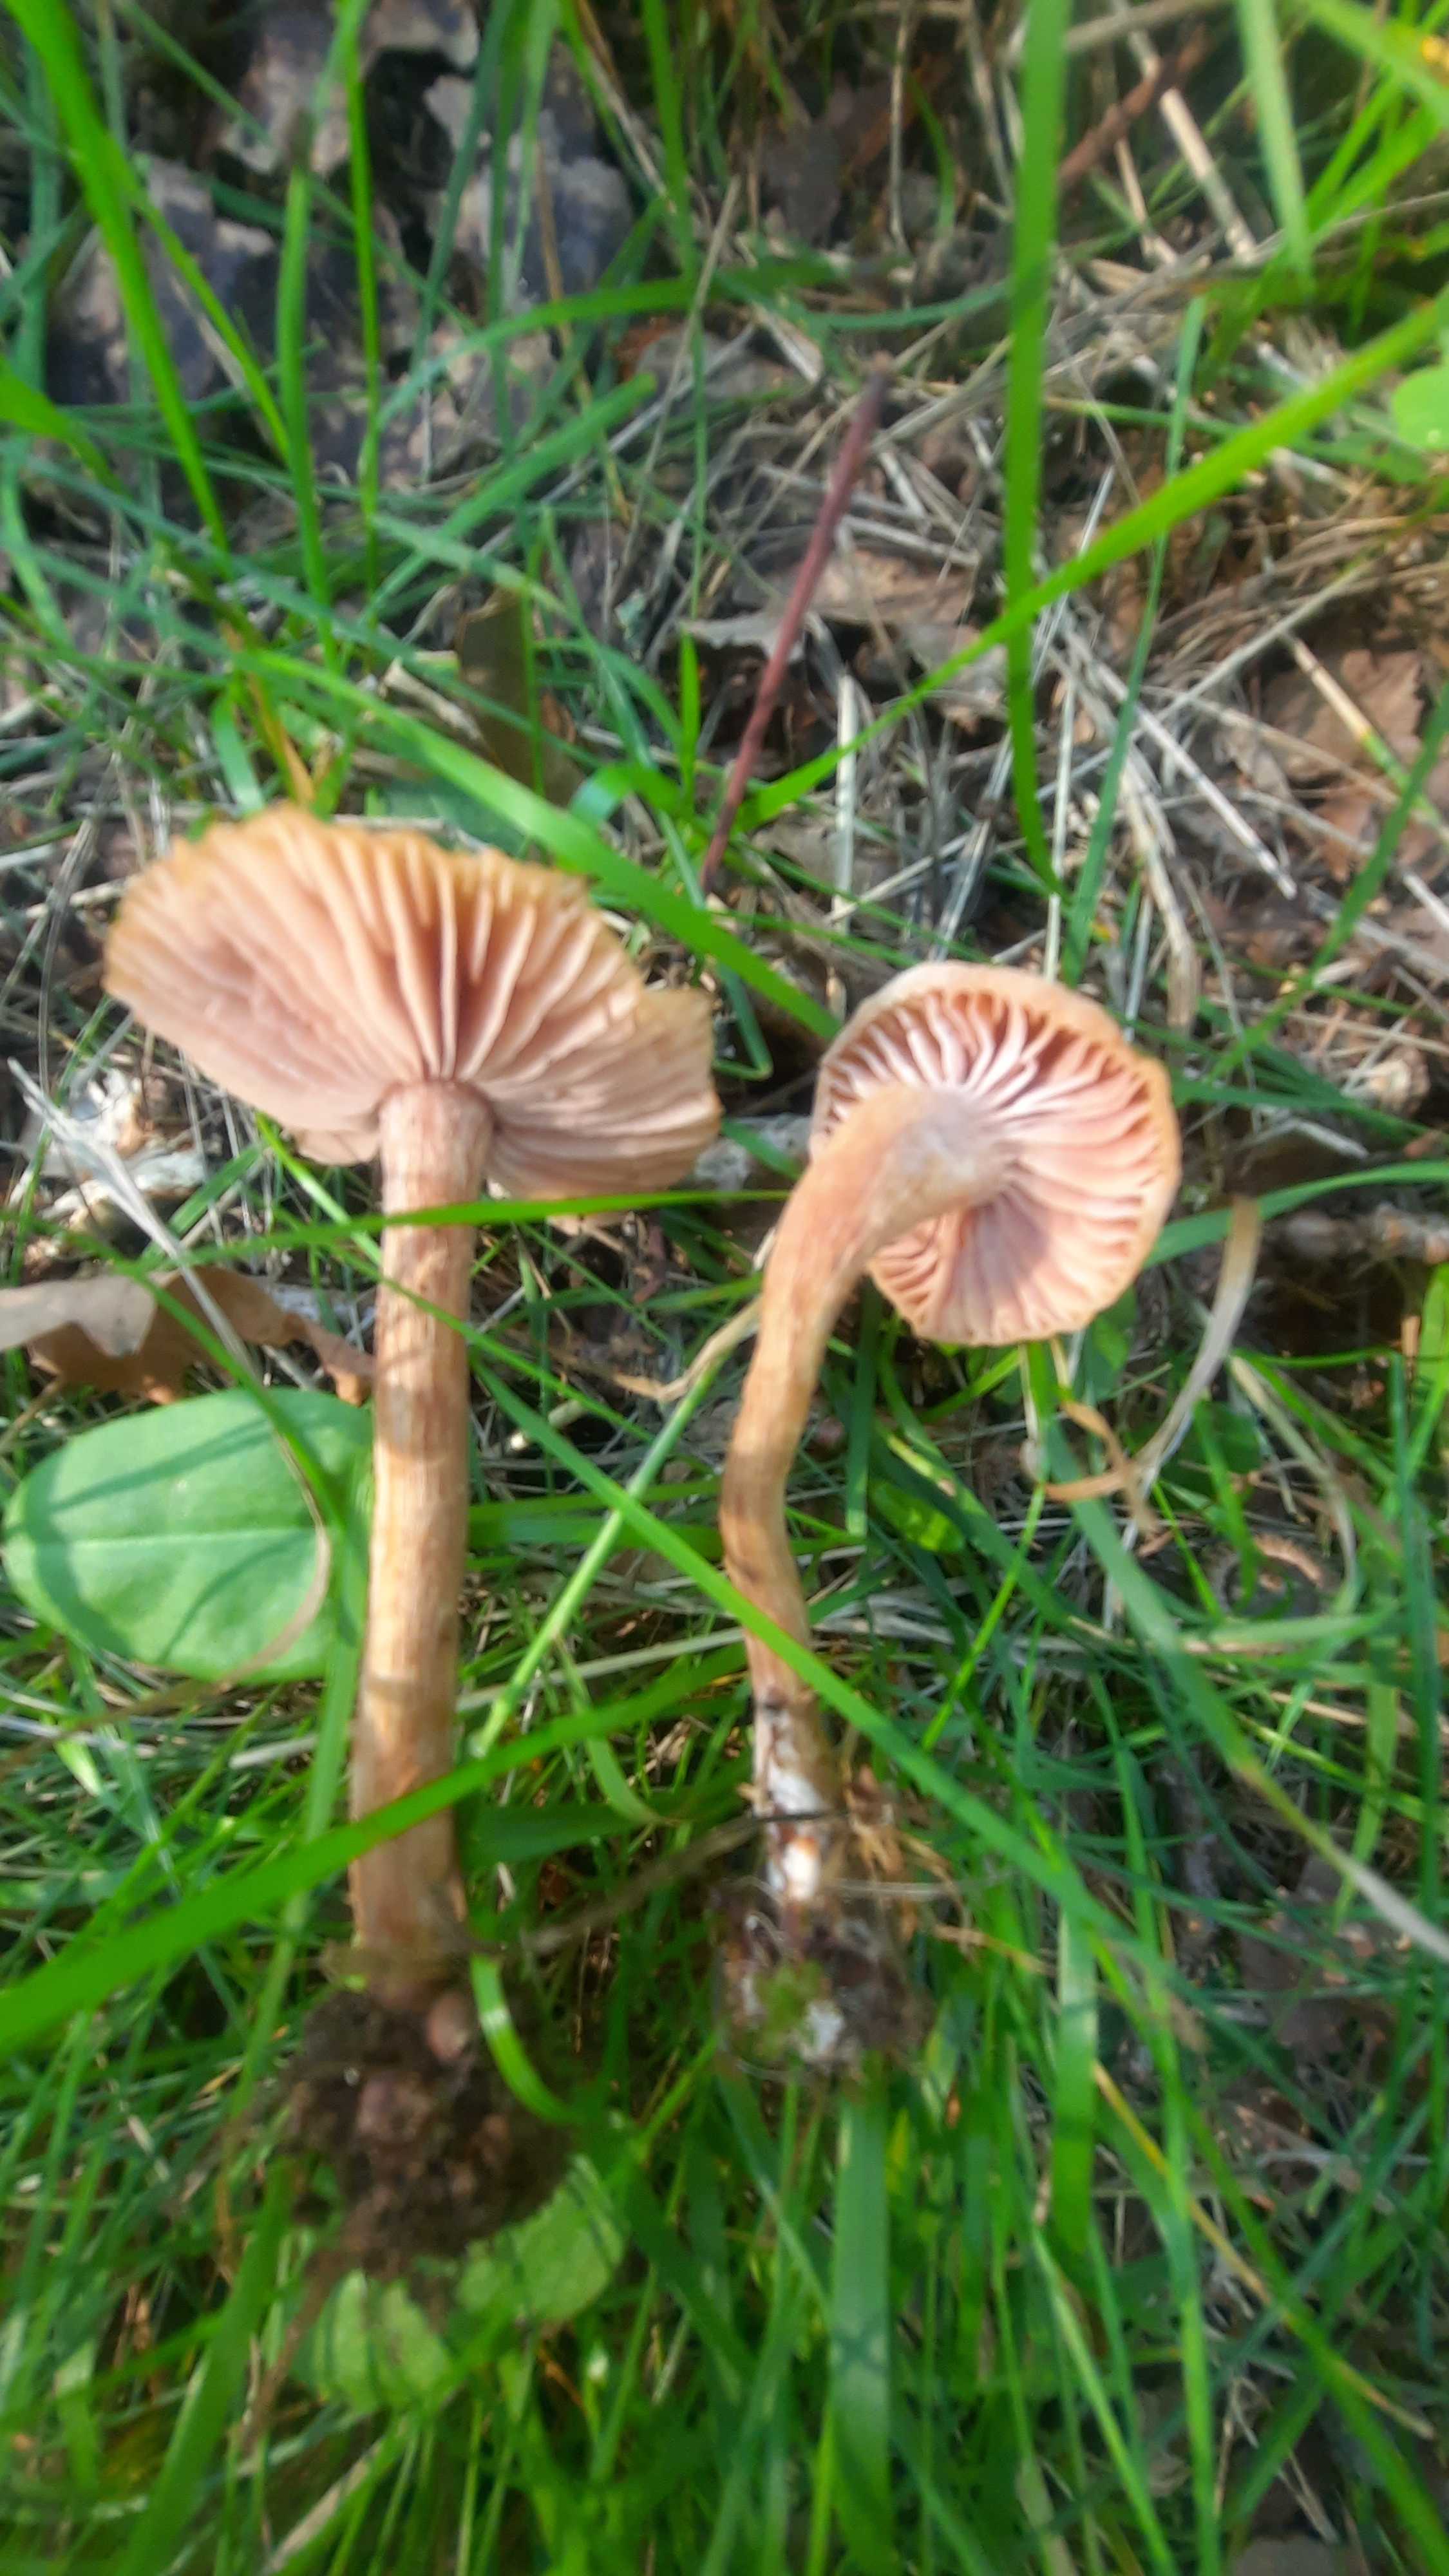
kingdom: Fungi
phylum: Basidiomycota
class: Agaricomycetes
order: Agaricales
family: Hydnangiaceae
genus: Laccaria
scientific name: Laccaria laccata
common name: rød ametysthat
